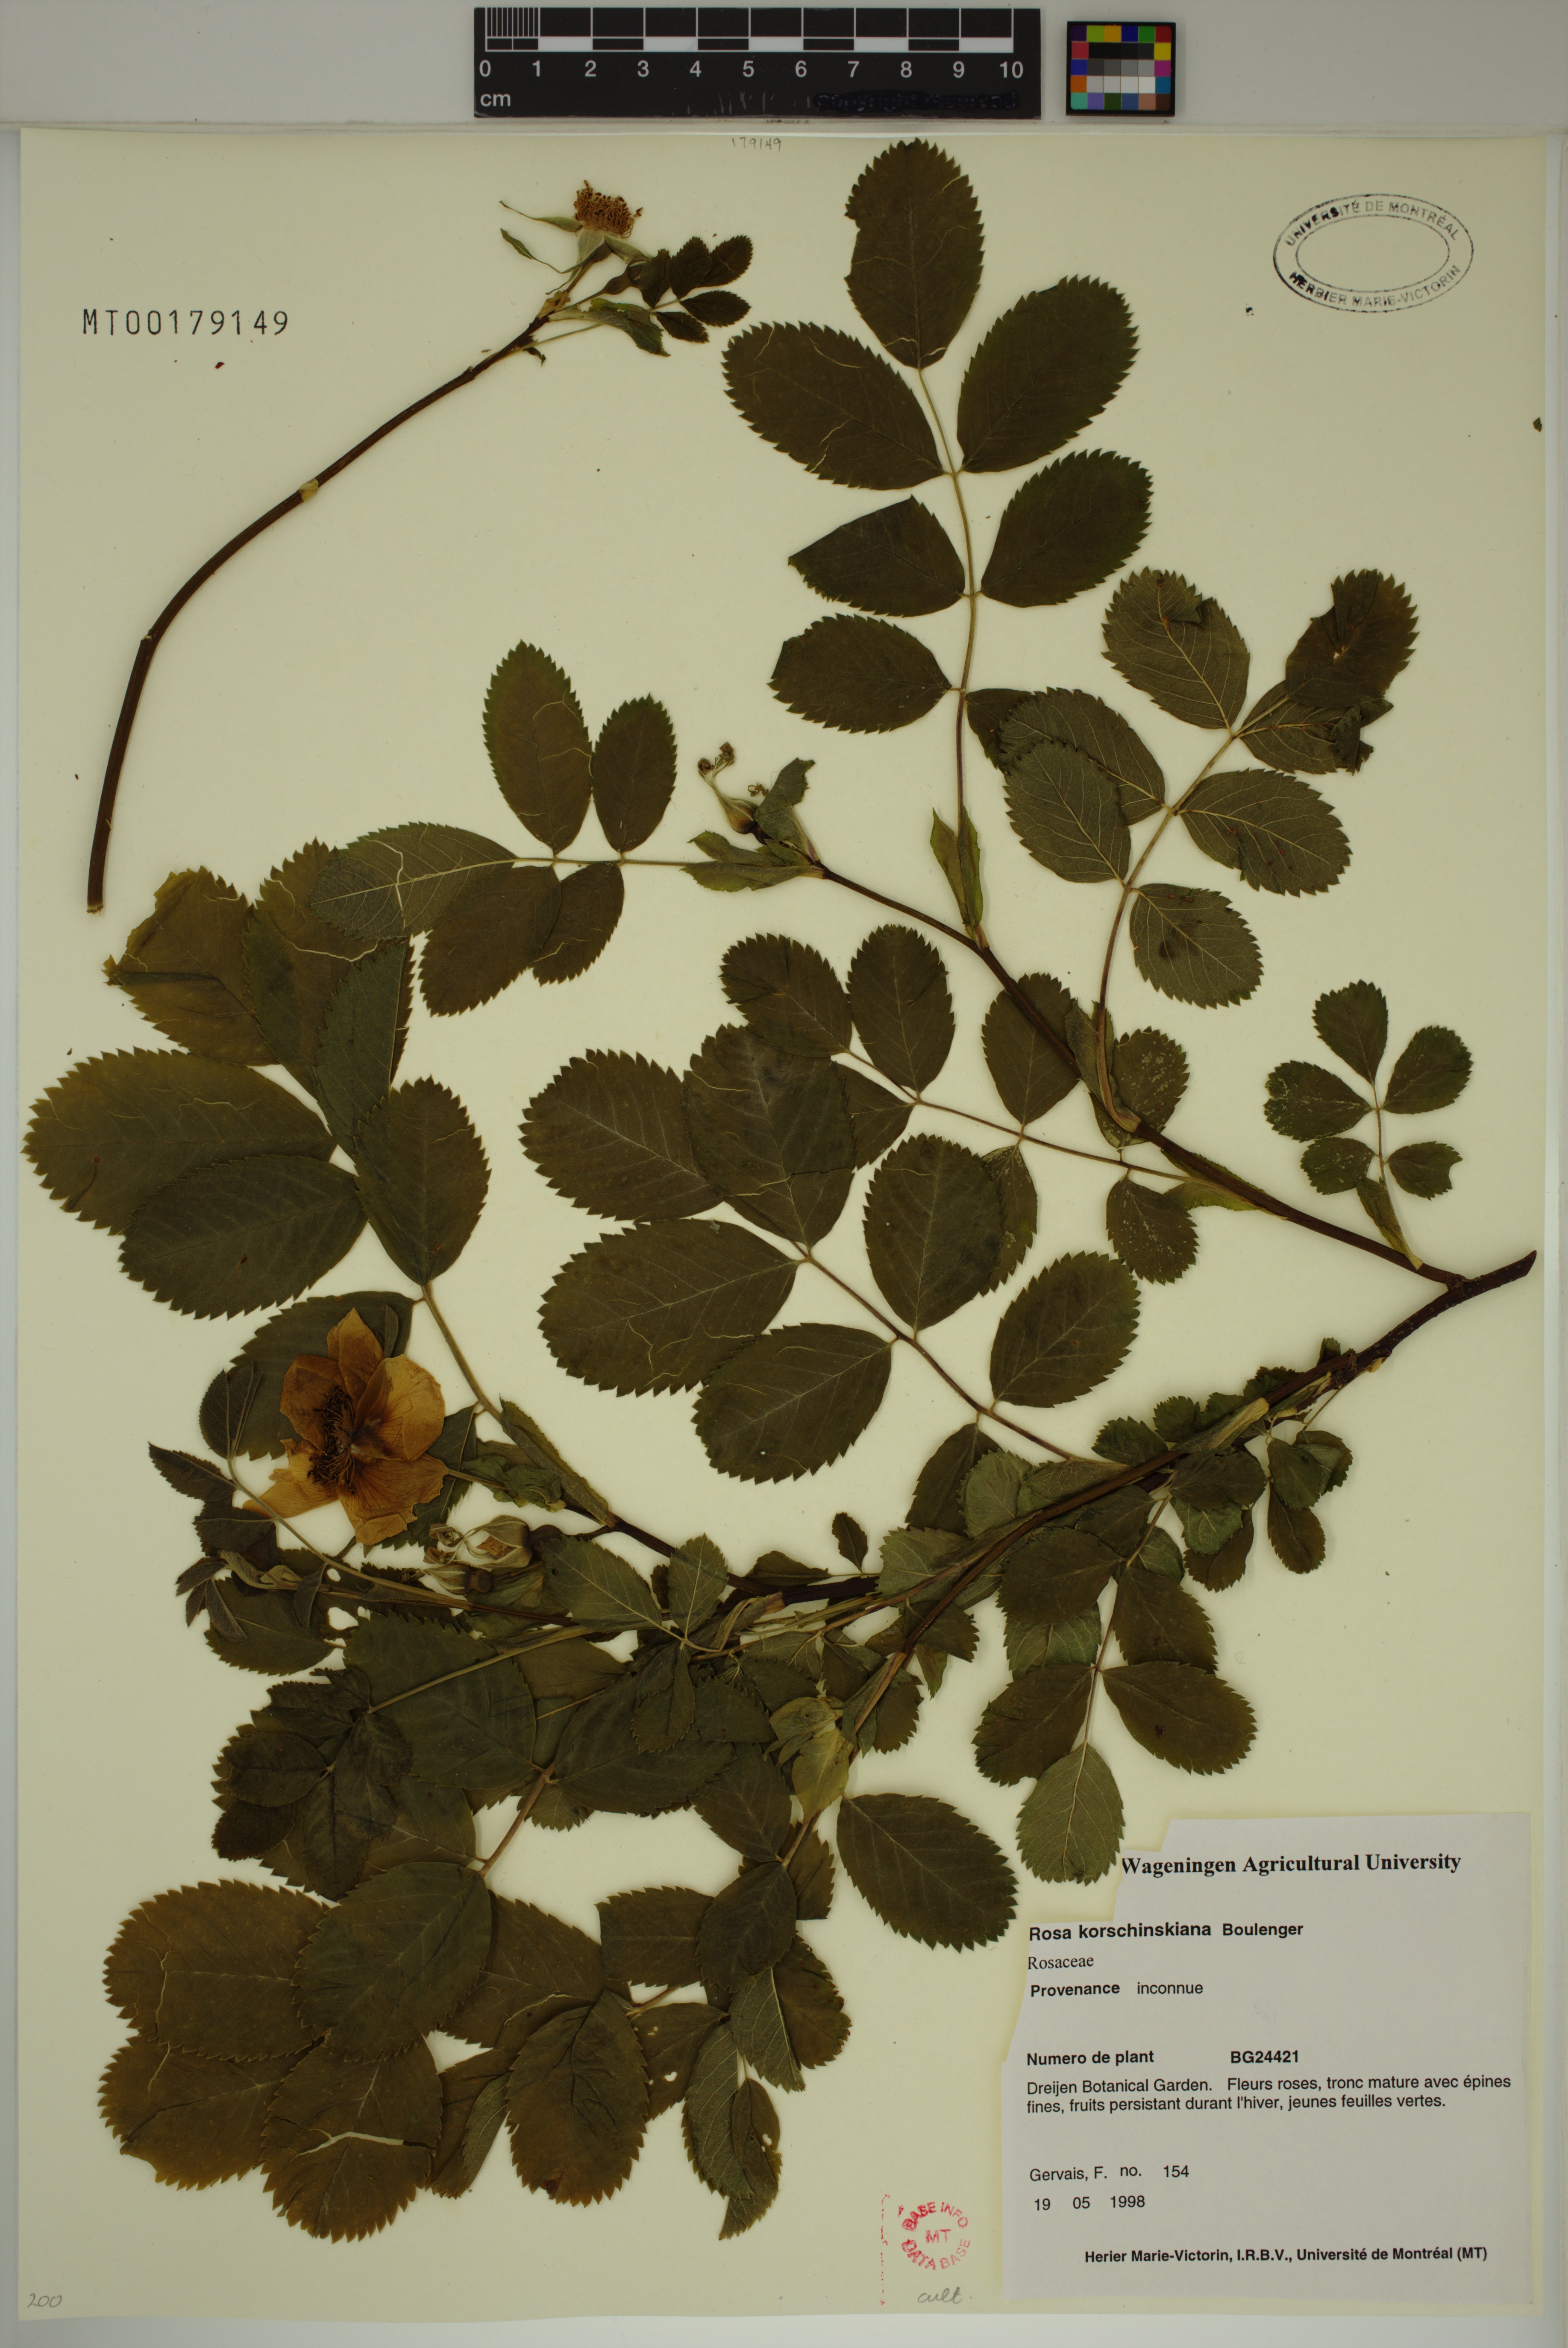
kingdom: Plantae
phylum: Tracheophyta
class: Magnoliopsida
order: Rosales
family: Rosaceae
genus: Rosa
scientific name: Rosa korshinskiana
